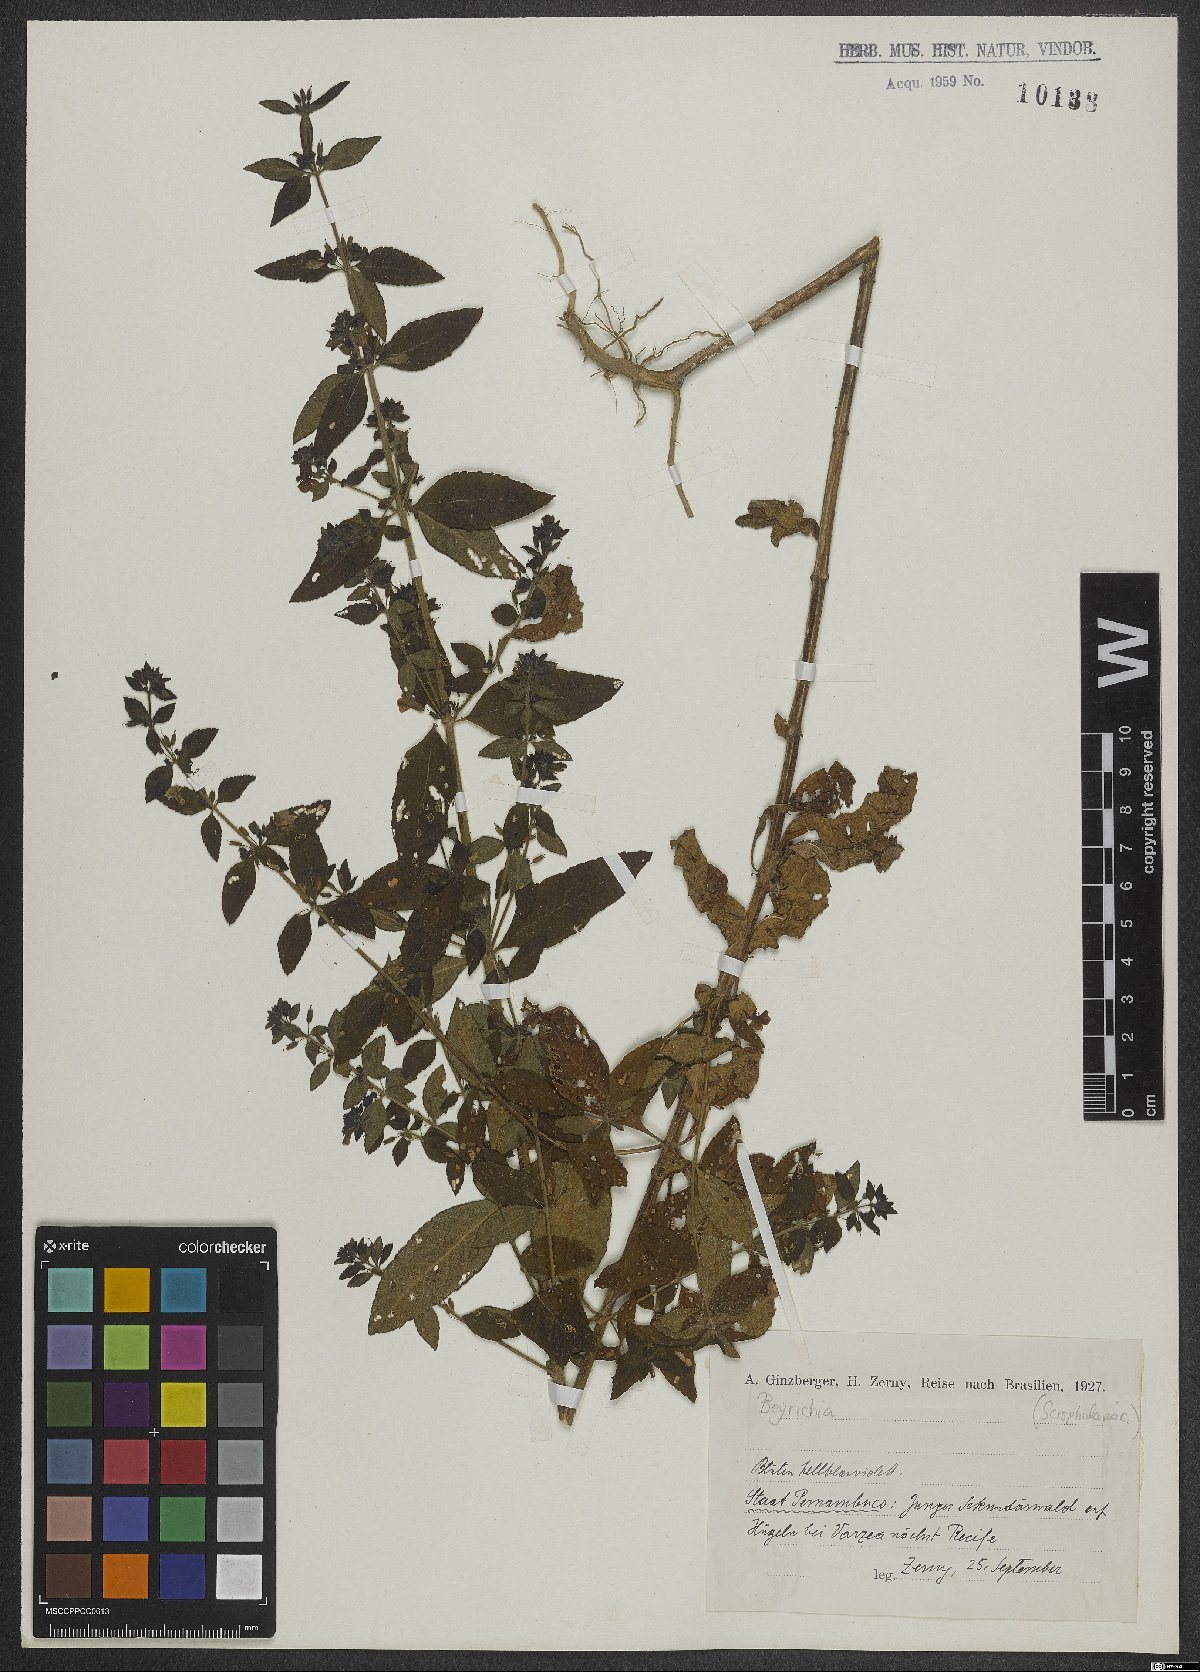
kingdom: Plantae
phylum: Tracheophyta
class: Magnoliopsida
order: Lamiales
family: Plantaginaceae
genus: Matourea
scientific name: Matourea
